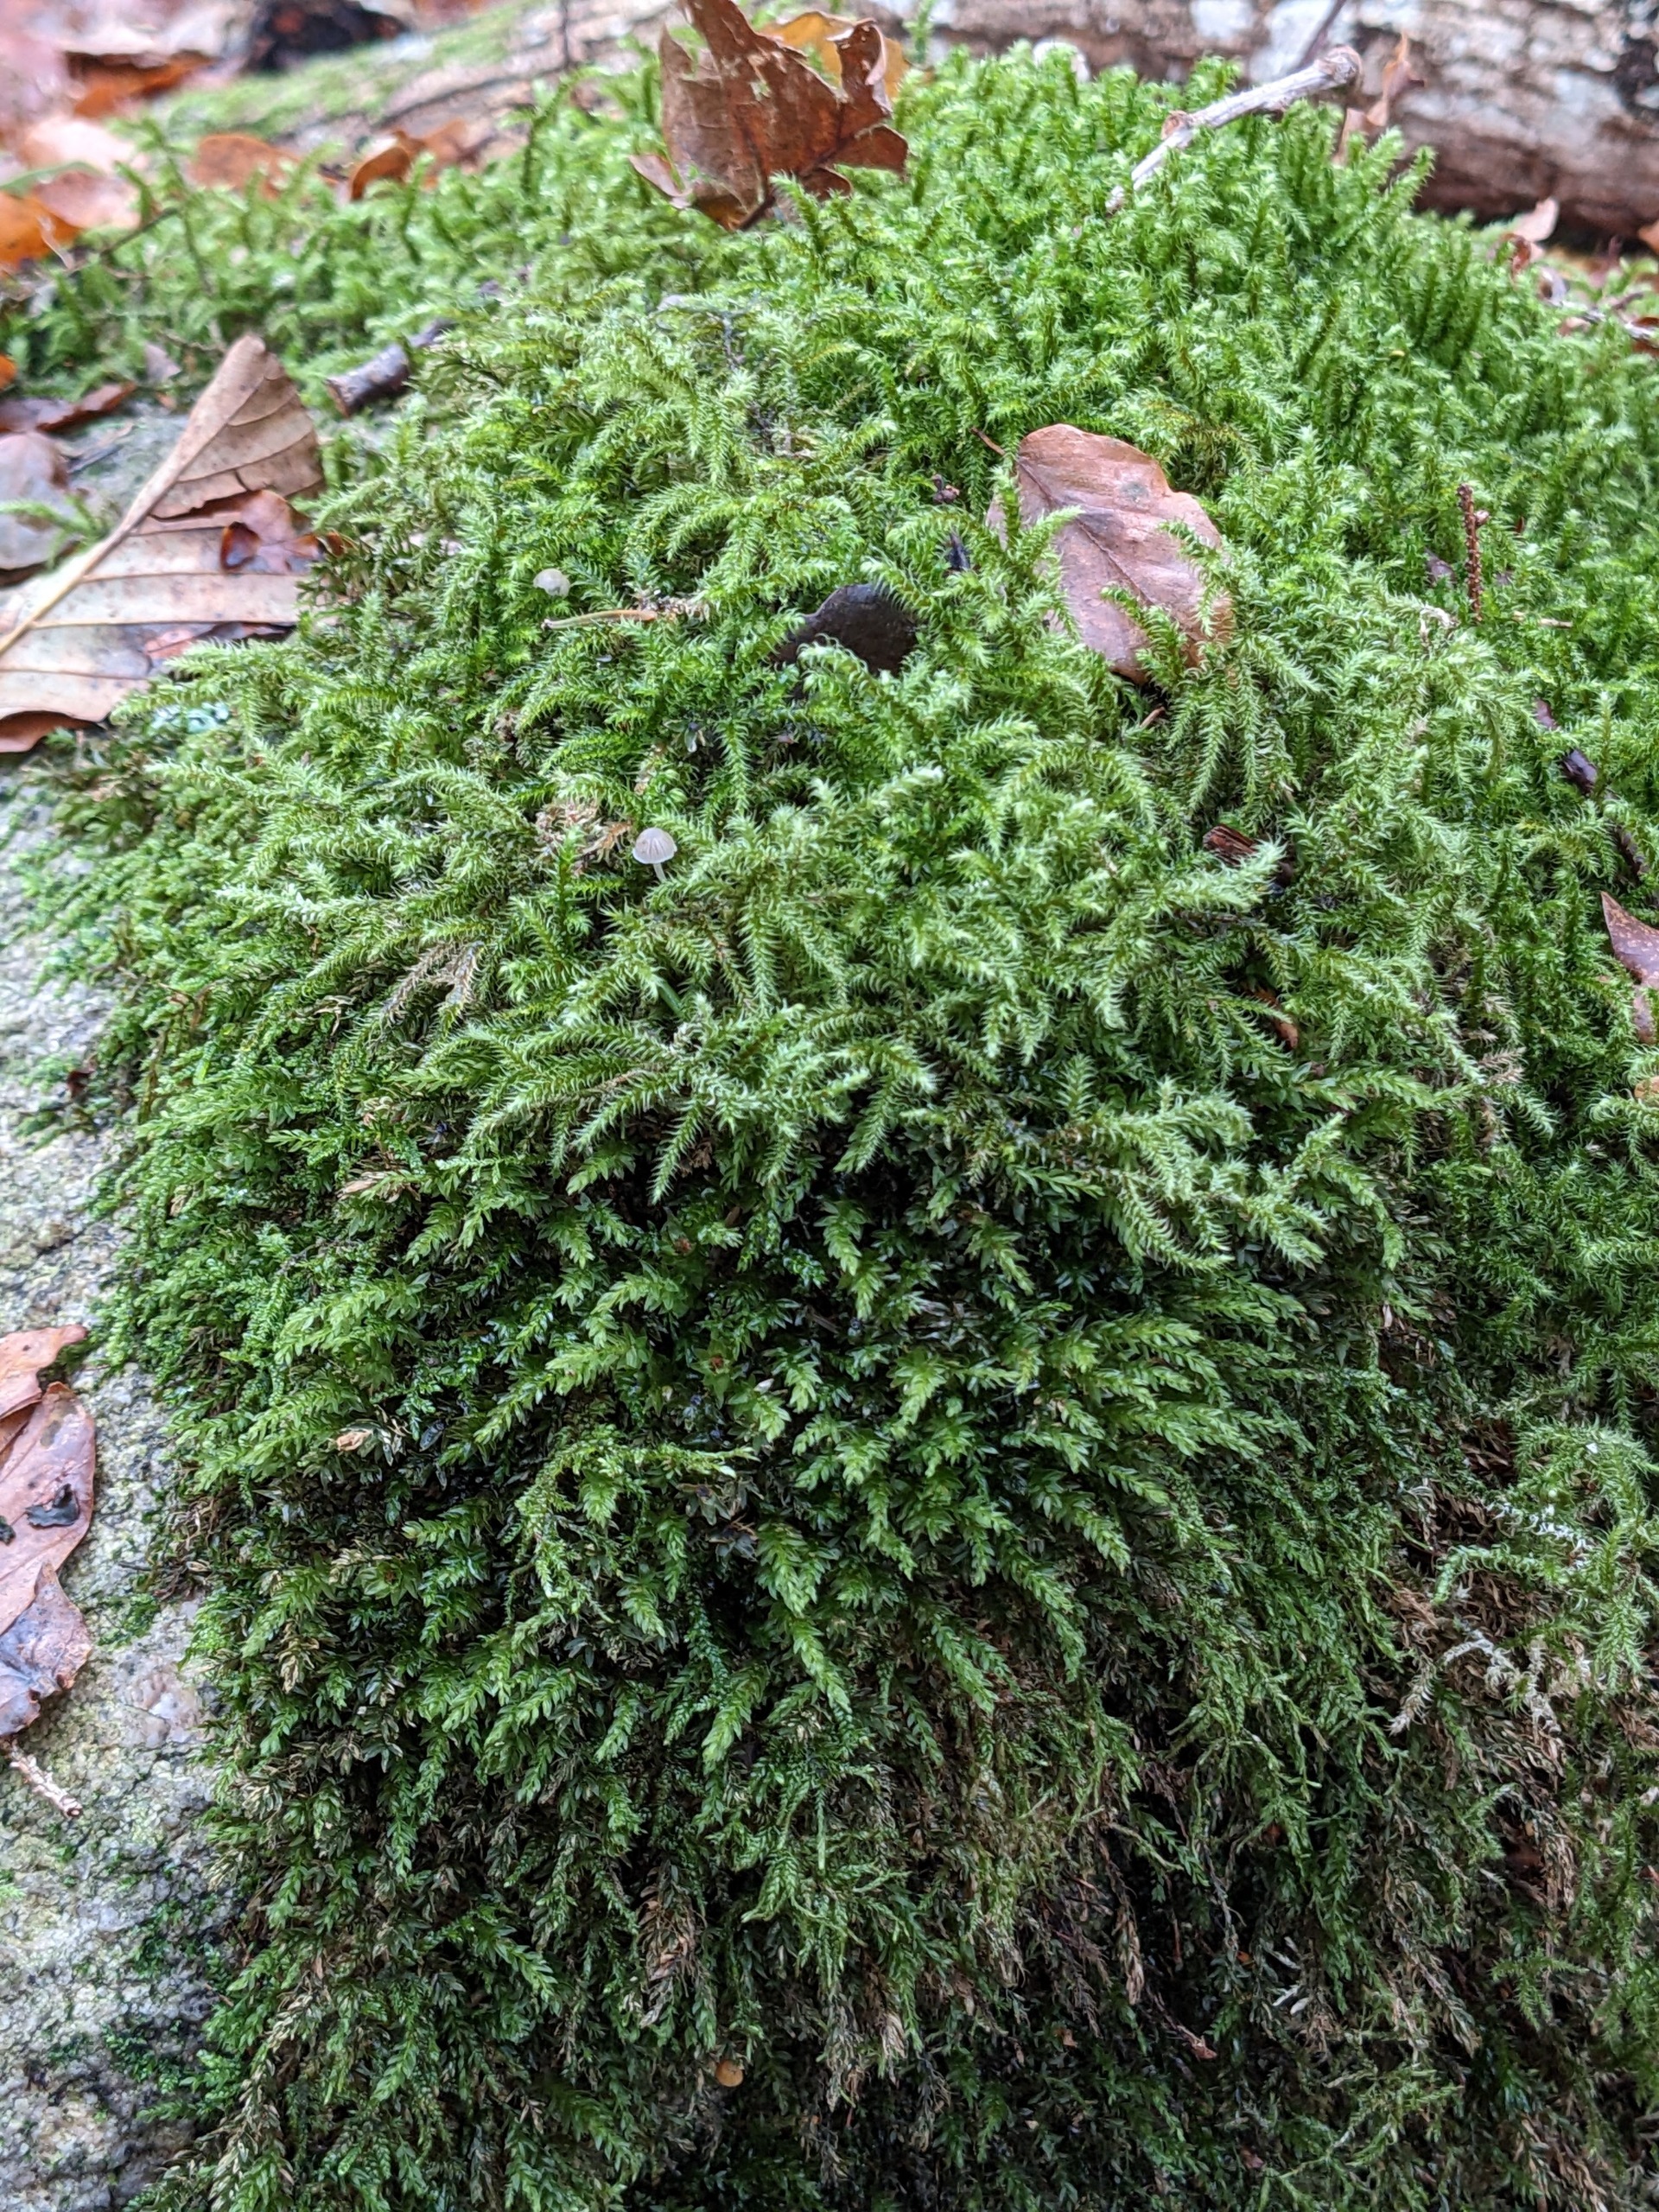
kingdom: Plantae
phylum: Bryophyta
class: Bryopsida
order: Hypnales
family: Hylocomiaceae
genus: Rhytidiadelphus
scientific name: Rhytidiadelphus loreus
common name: Ulvefod-kransemos
